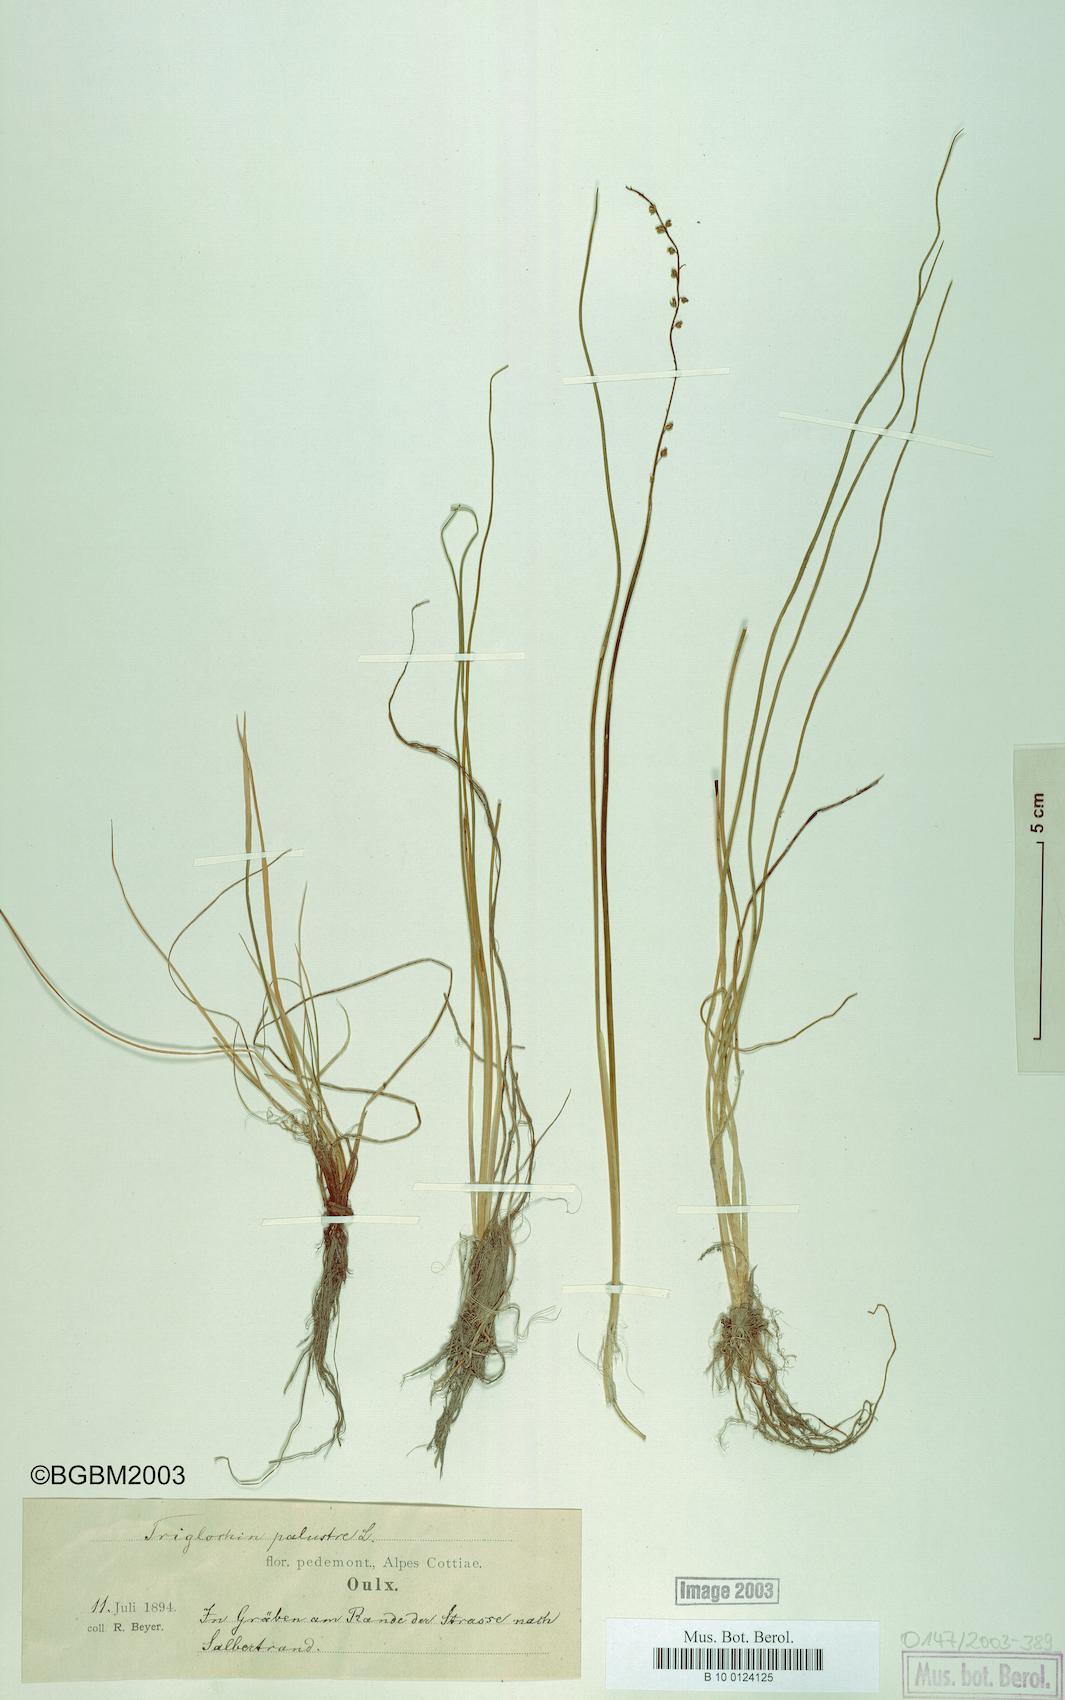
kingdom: Plantae
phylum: Tracheophyta
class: Liliopsida
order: Alismatales
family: Juncaginaceae
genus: Triglochin
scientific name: Triglochin palustris
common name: Marsh arrowgrass
